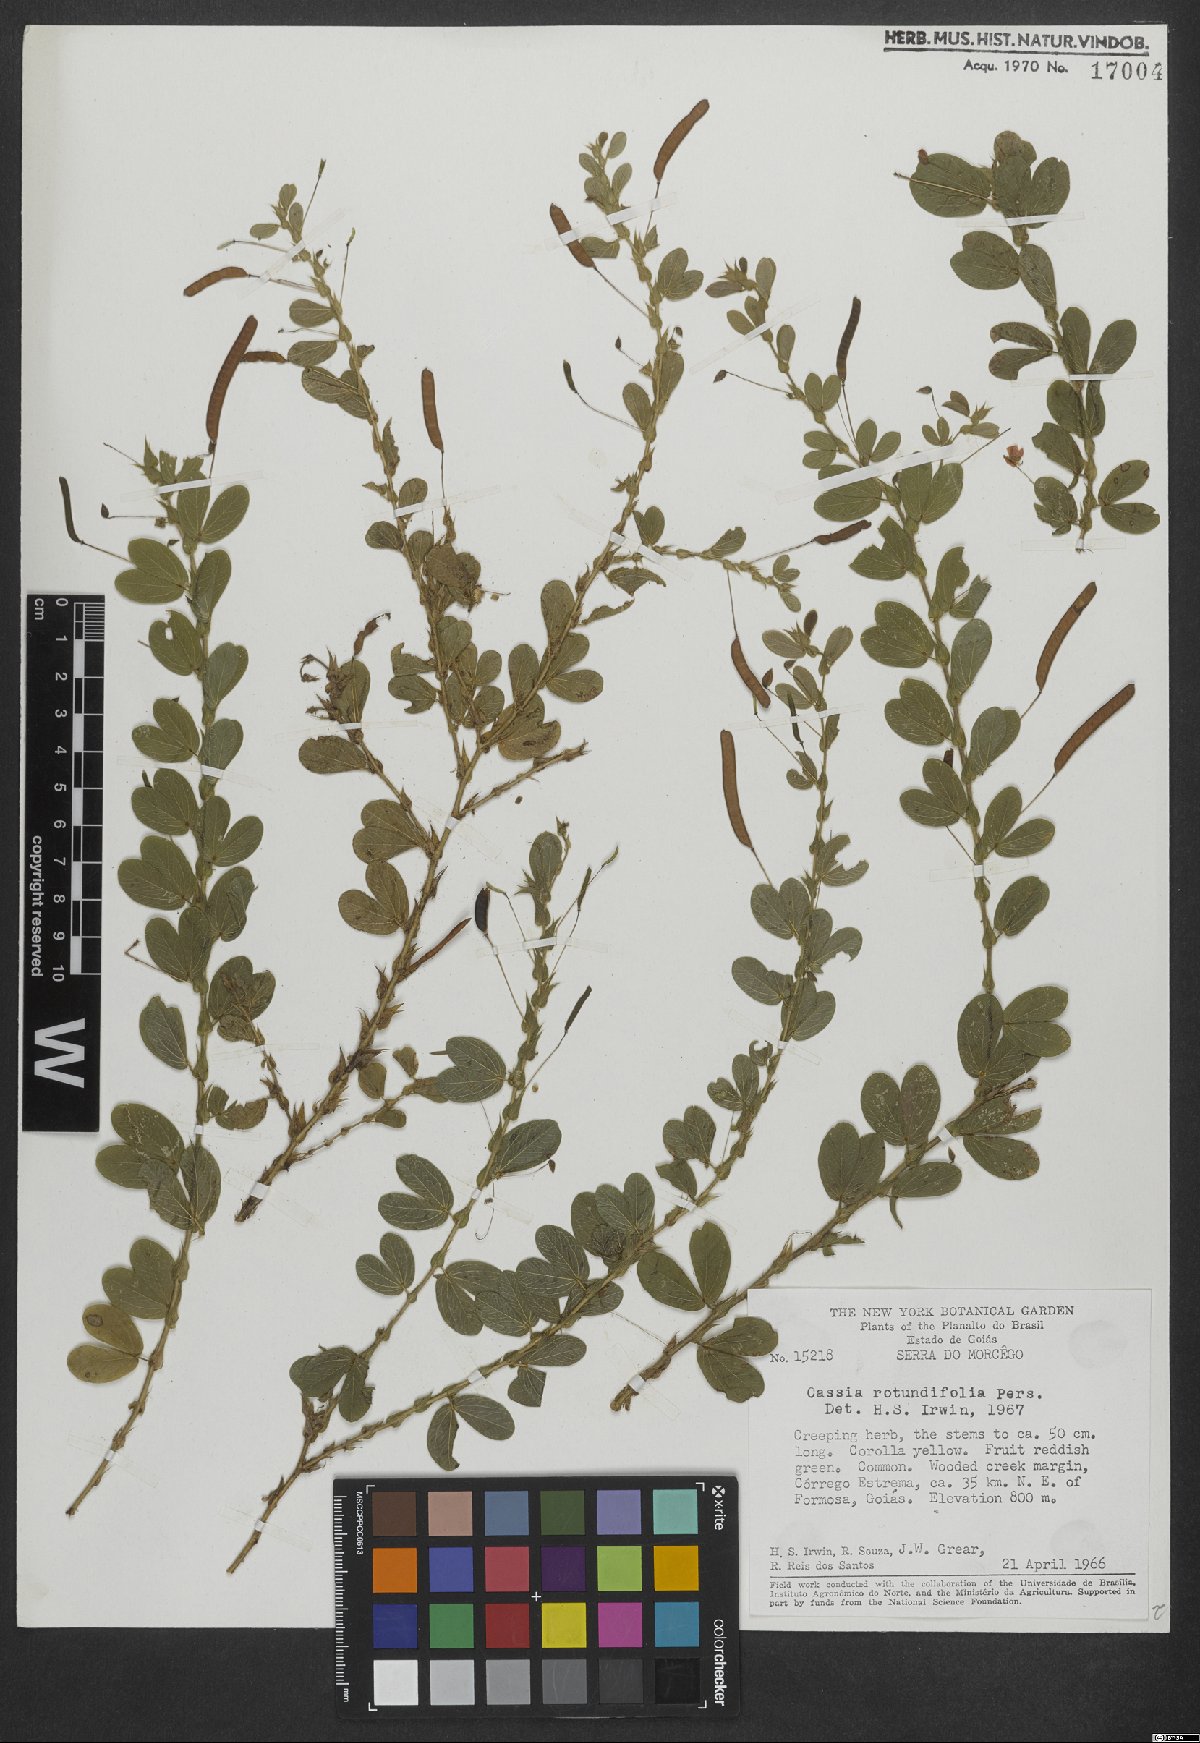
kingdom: Plantae
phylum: Tracheophyta
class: Magnoliopsida
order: Fabales
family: Fabaceae
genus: Chamaecrista
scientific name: Chamaecrista rotundifolia
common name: Round-leaf cassia
